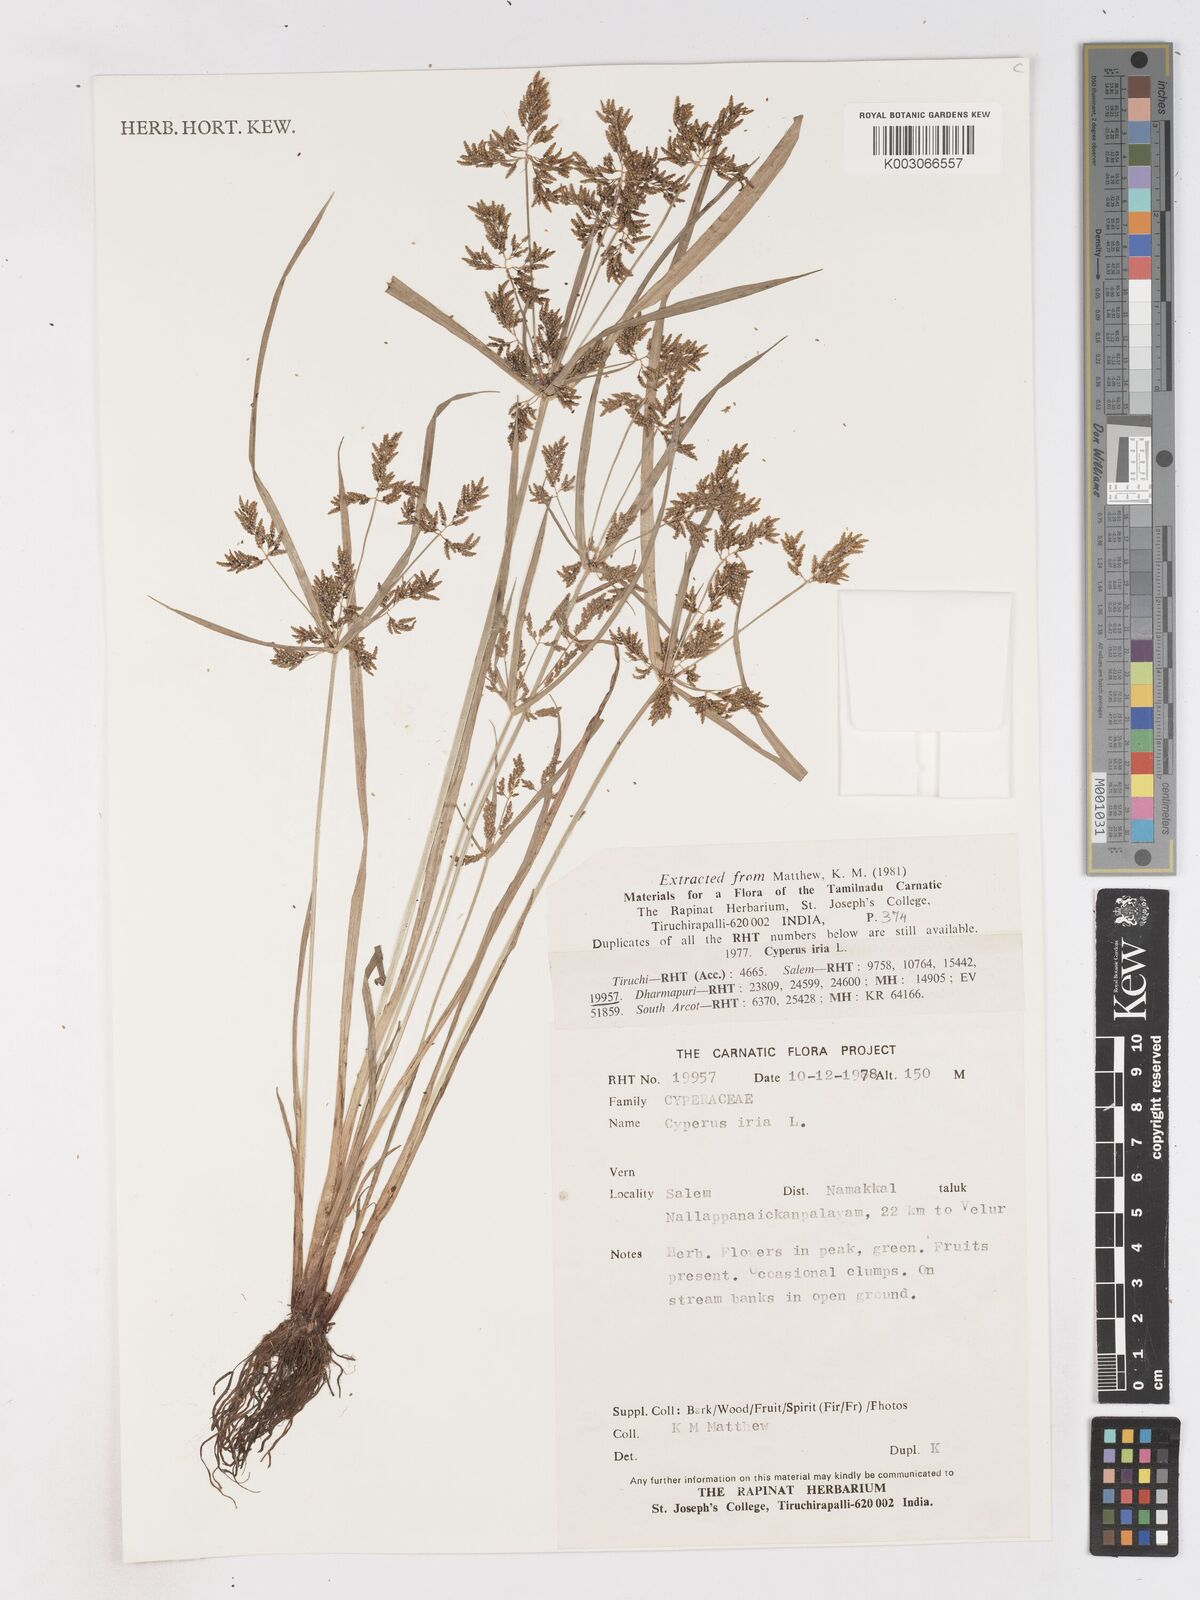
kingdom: Plantae
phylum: Tracheophyta
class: Liliopsida
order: Poales
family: Cyperaceae
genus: Cyperus
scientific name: Cyperus iria
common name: Ricefield flatsedge
